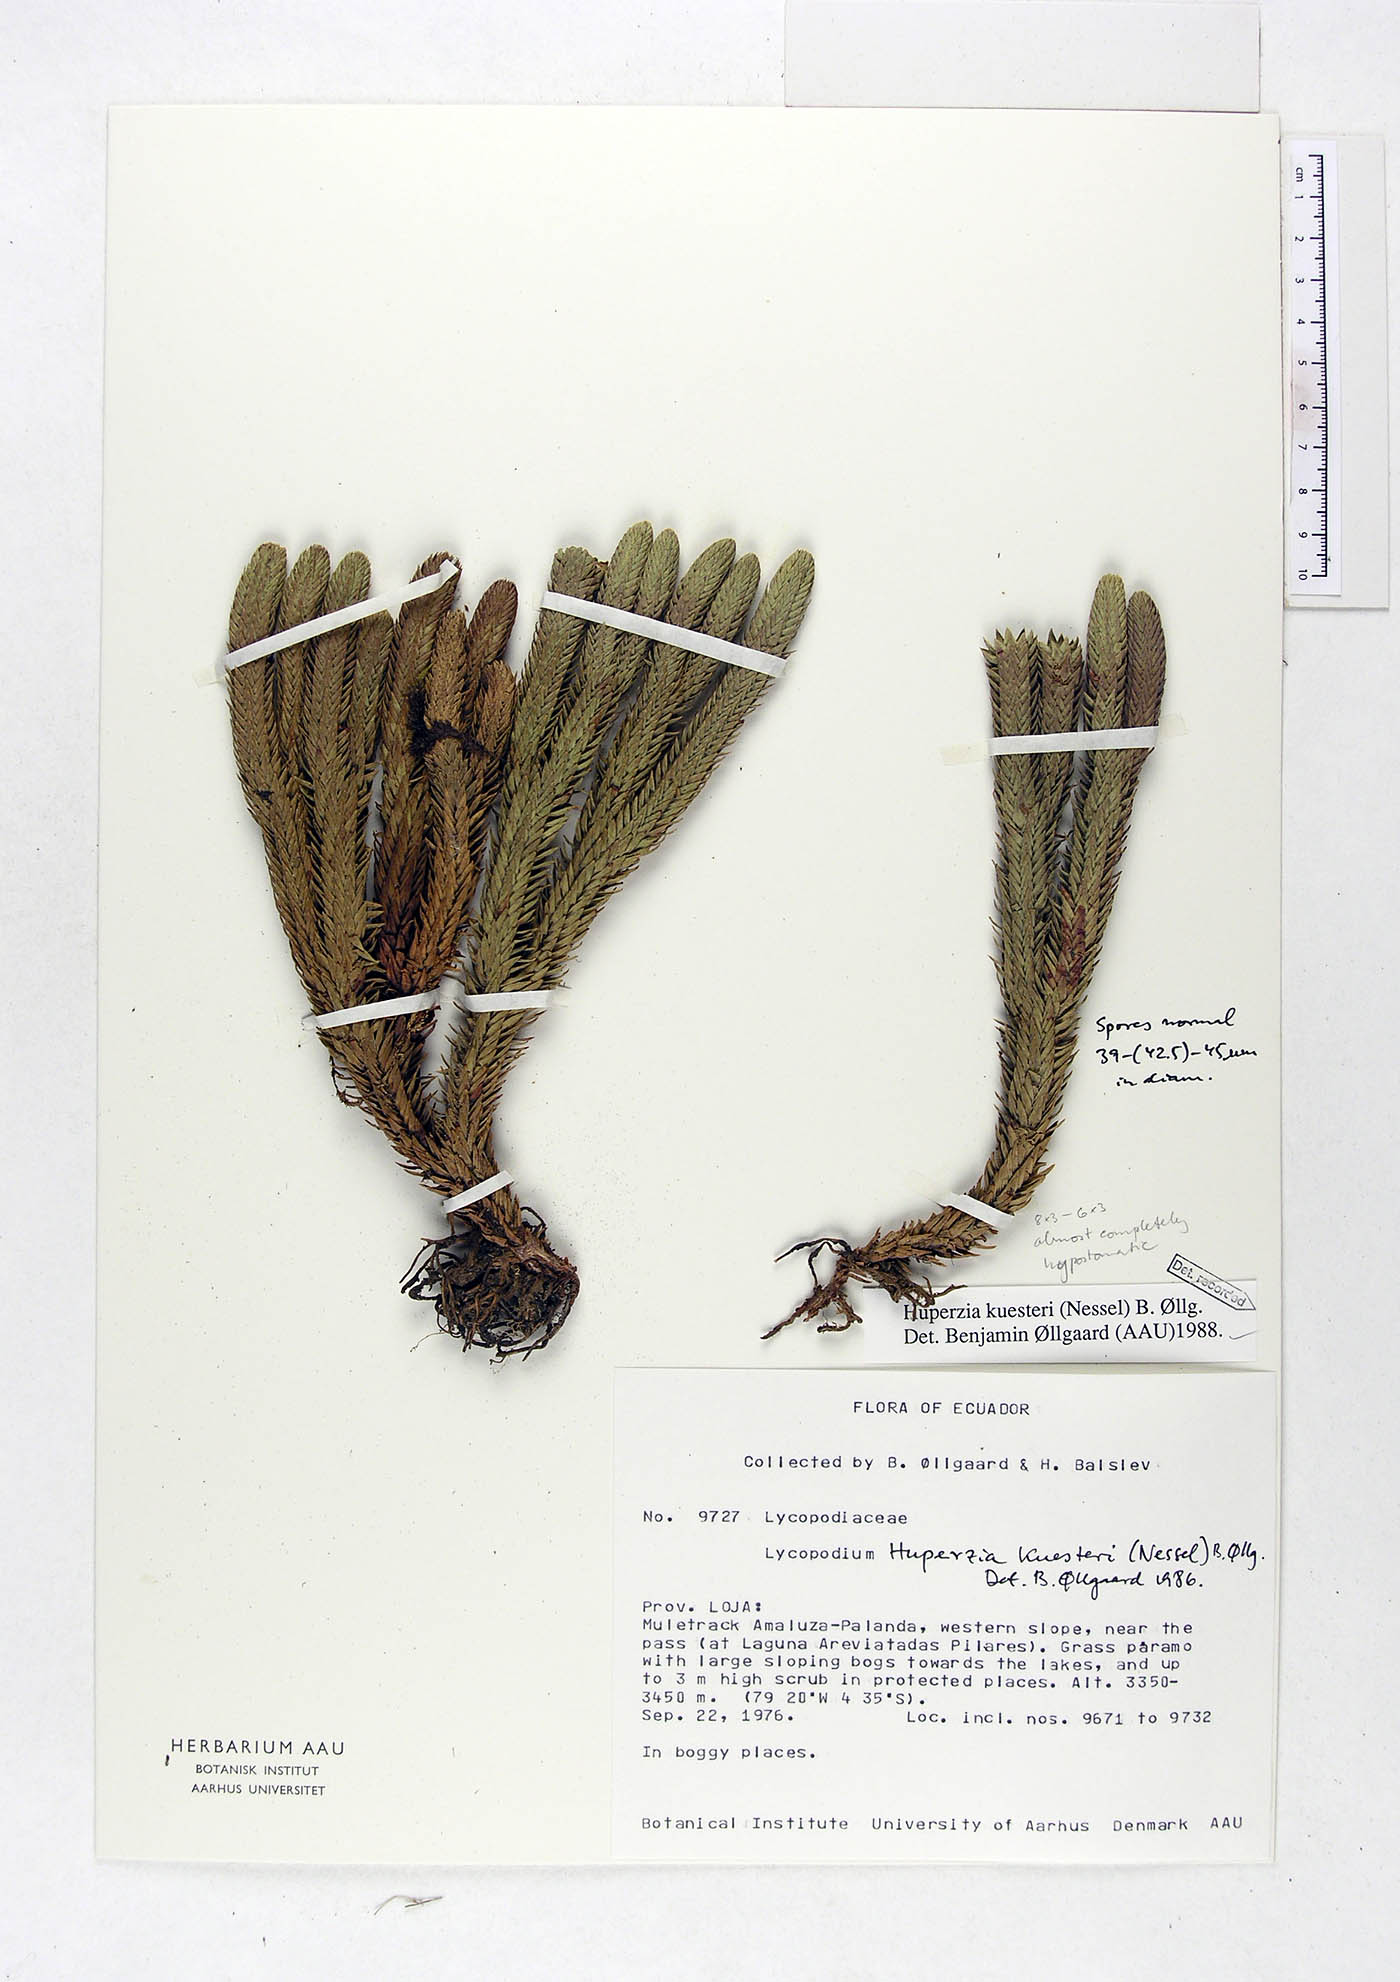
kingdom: Plantae
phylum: Tracheophyta
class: Lycopodiopsida
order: Lycopodiales
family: Lycopodiaceae
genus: Phlegmariurus
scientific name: Phlegmariurus kuesteri
